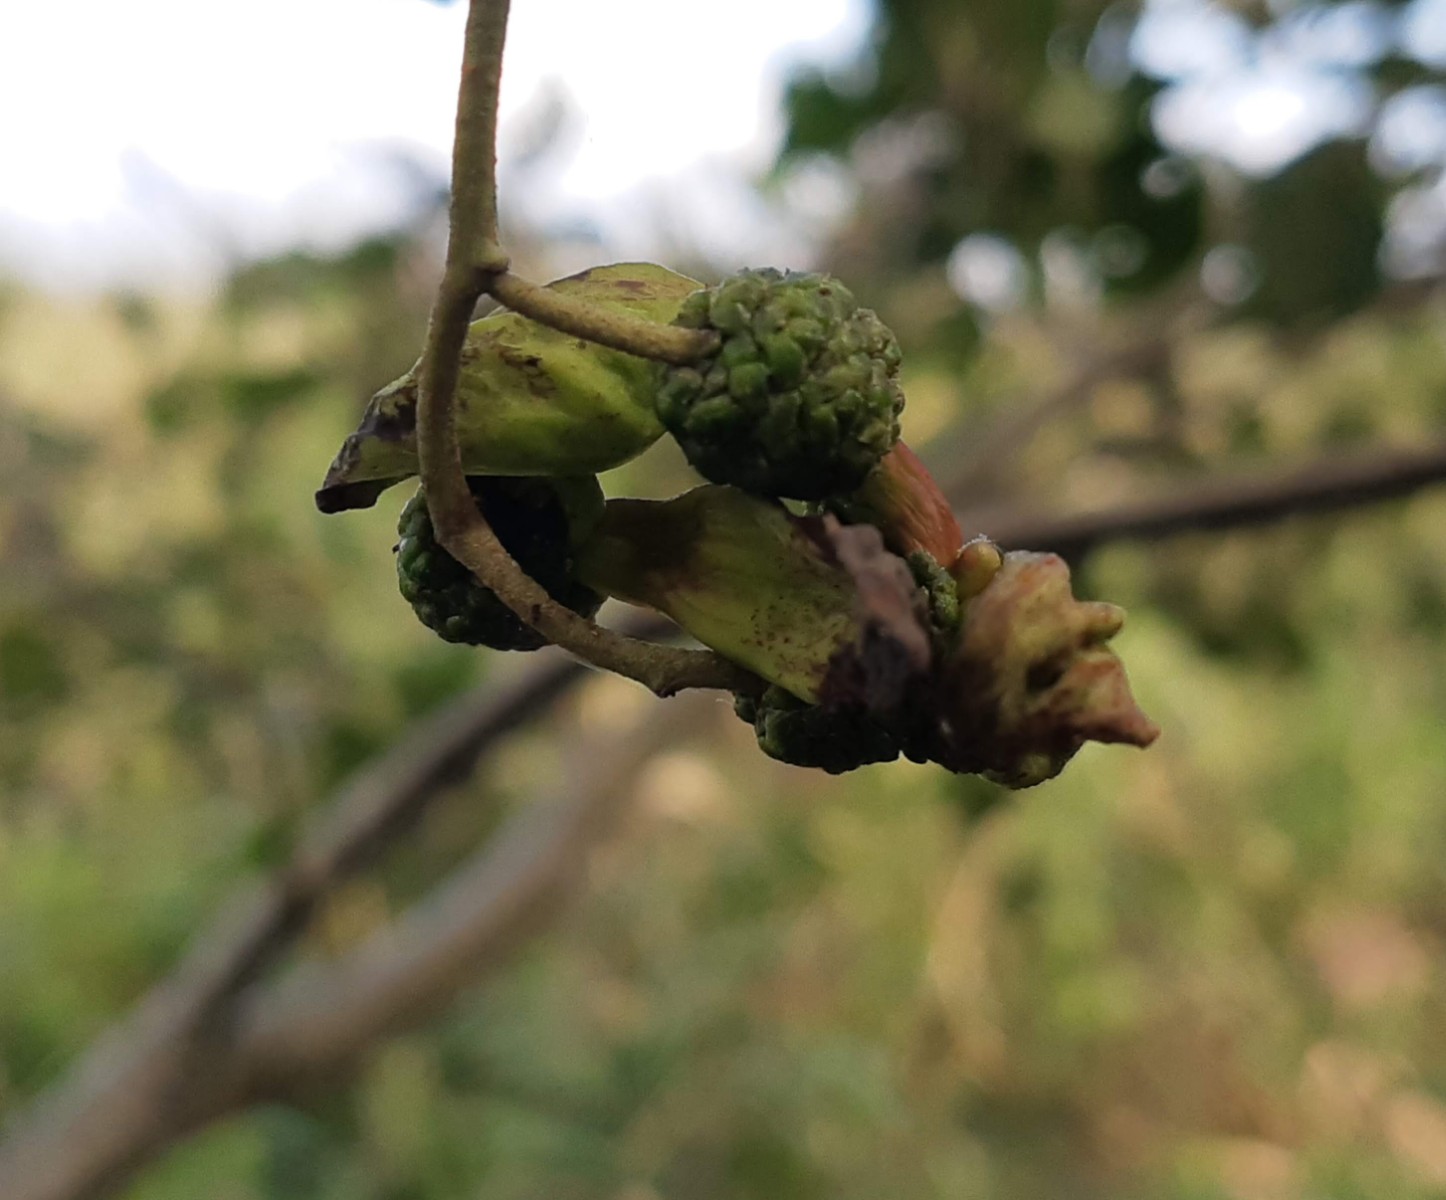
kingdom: Fungi
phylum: Ascomycota
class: Taphrinomycetes
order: Taphrinales
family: Taphrinaceae
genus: Taphrina
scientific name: Taphrina alni
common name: Alder tongue
